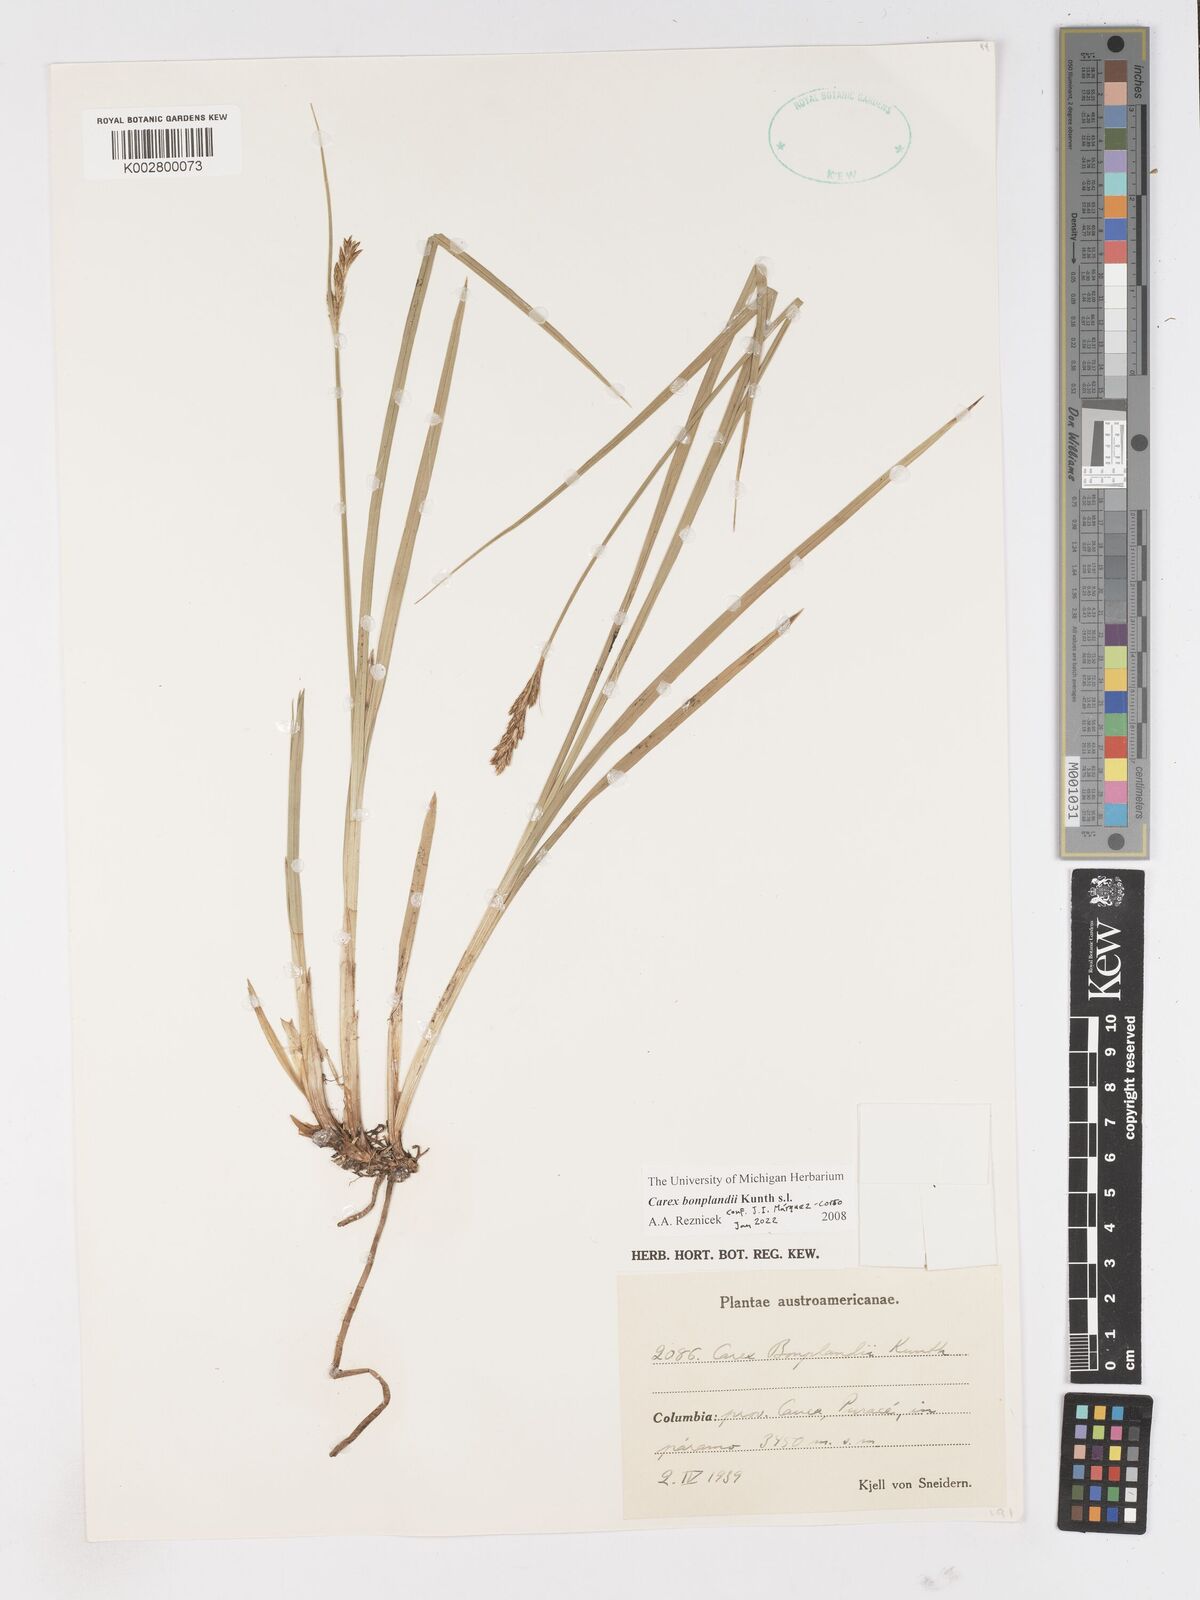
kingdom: Plantae
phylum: Tracheophyta
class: Liliopsida
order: Poales
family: Cyperaceae
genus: Carex
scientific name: Carex bonplandii
